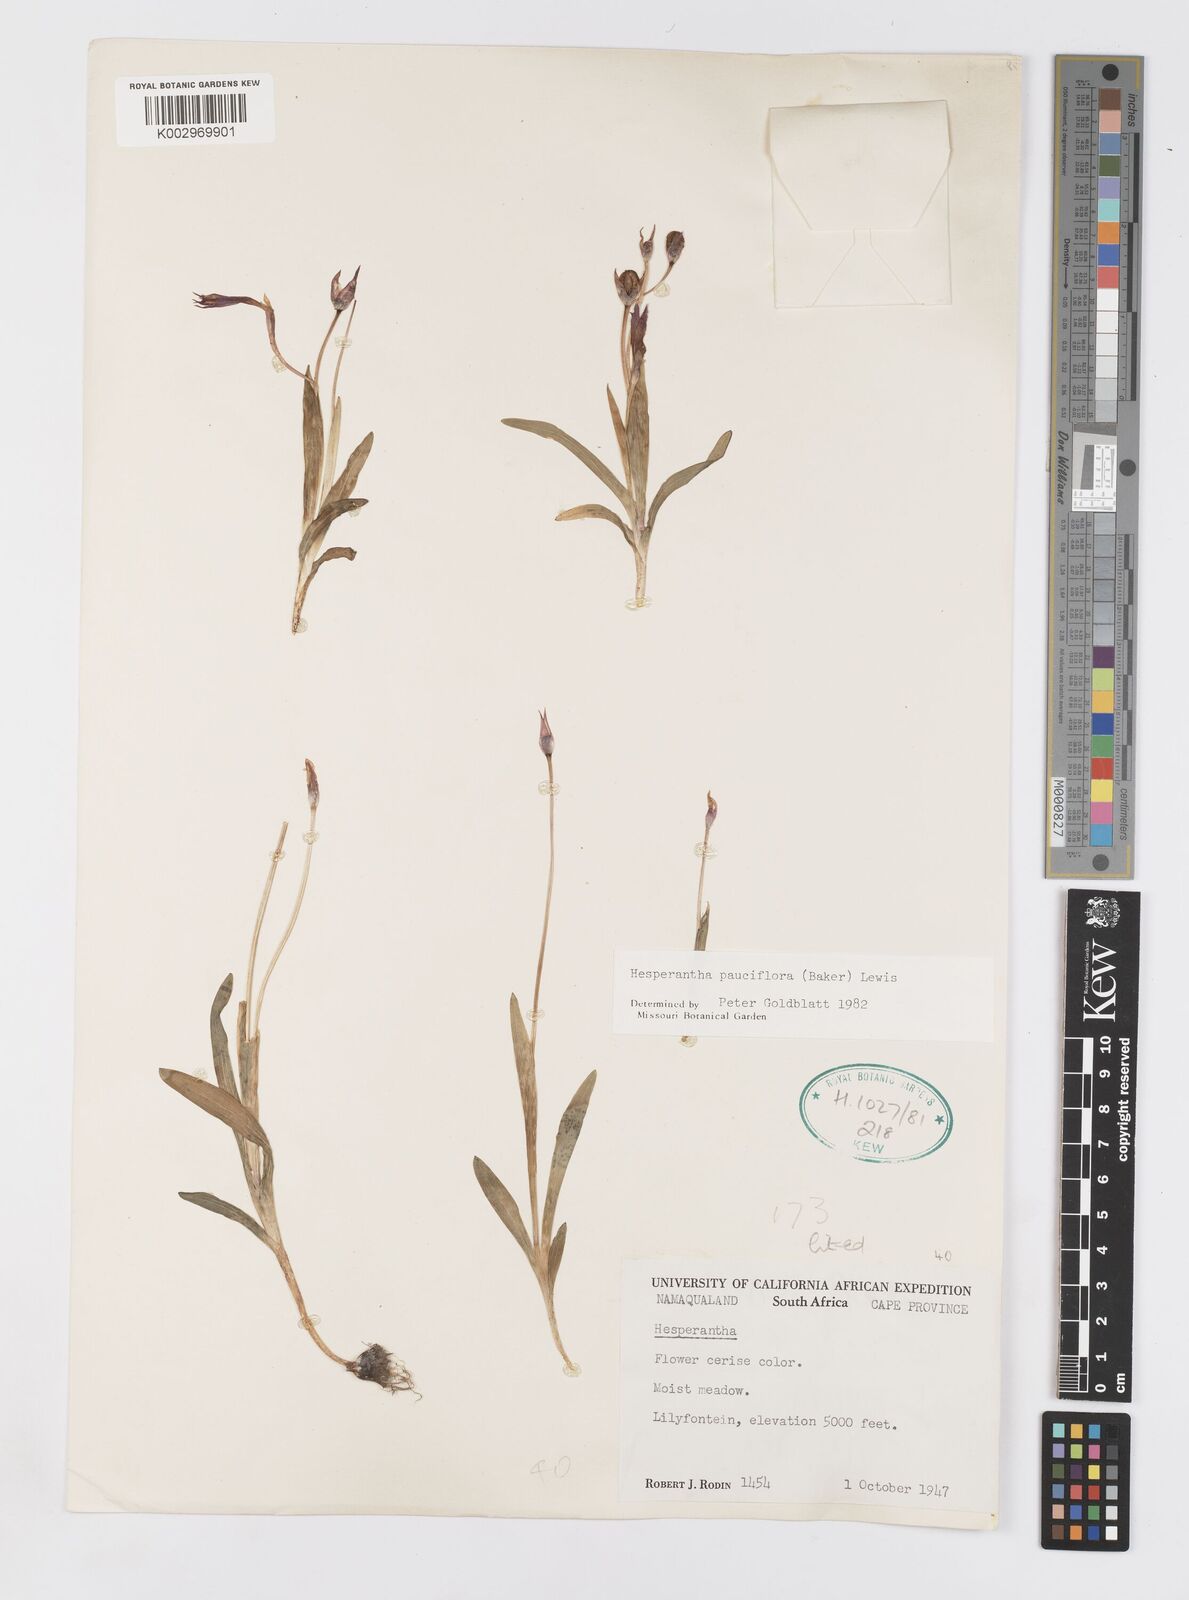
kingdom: Plantae
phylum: Tracheophyta
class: Liliopsida
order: Asparagales
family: Iridaceae
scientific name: Iridaceae
